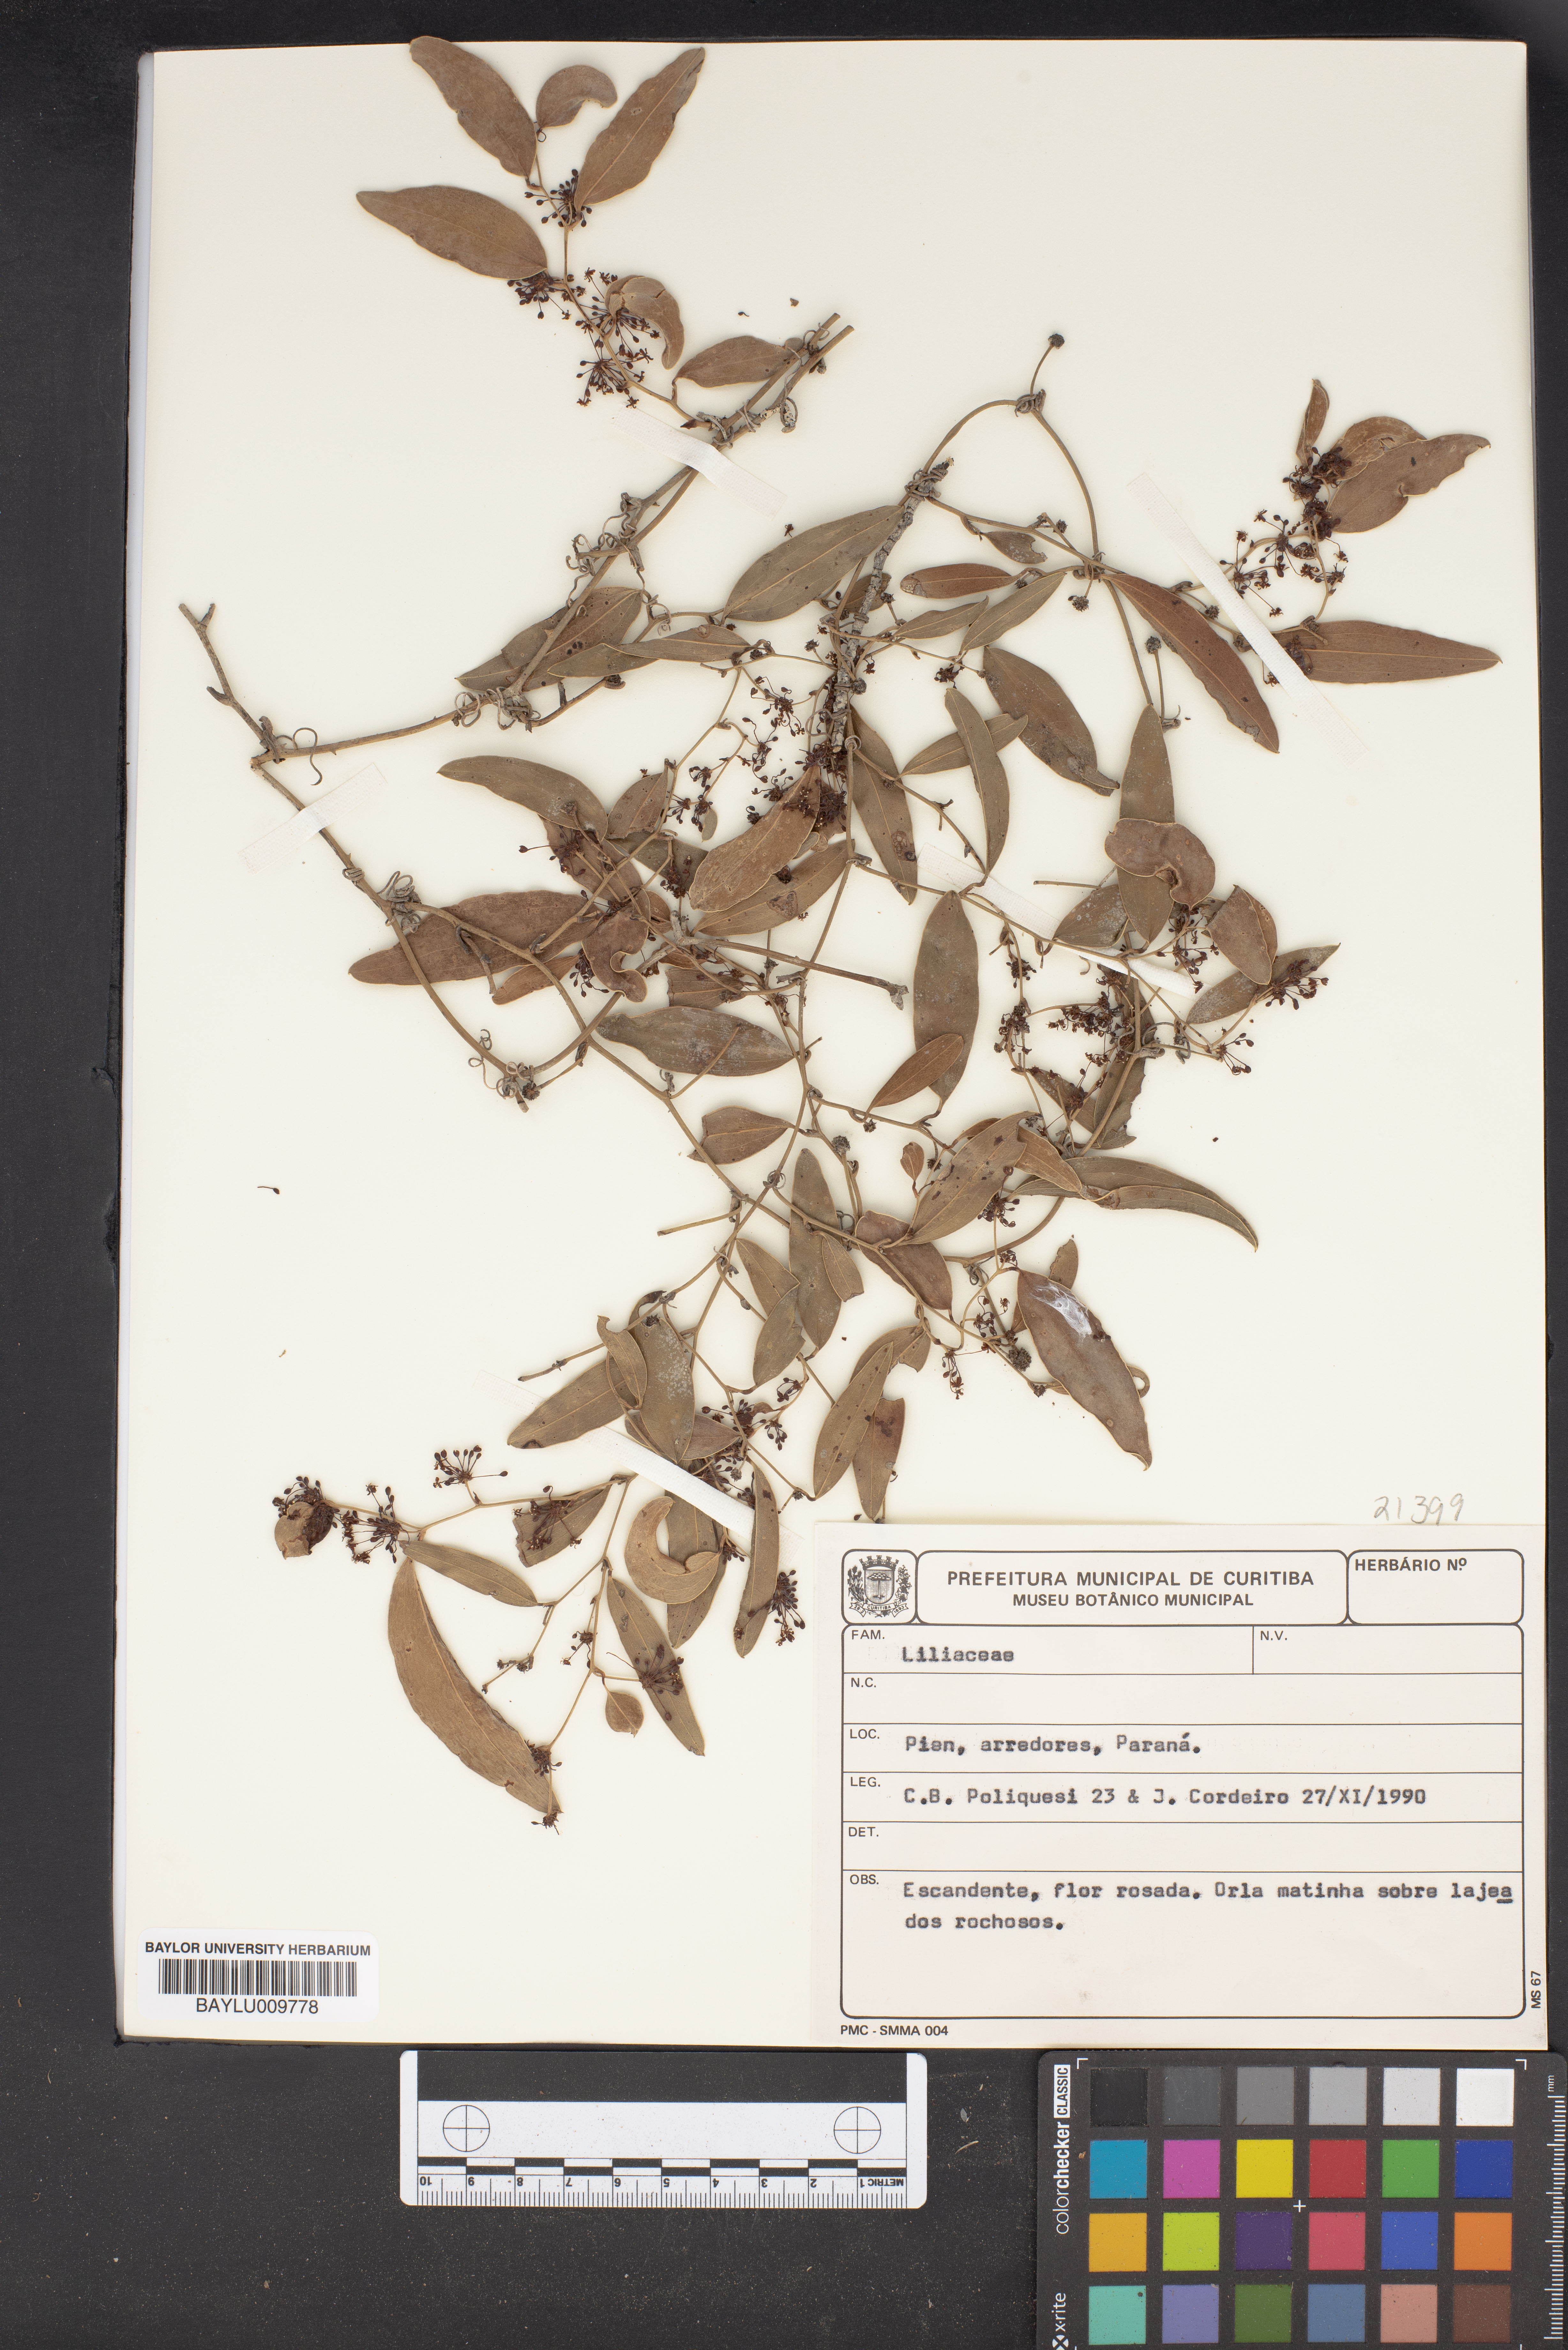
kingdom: Plantae
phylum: Tracheophyta
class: Liliopsida
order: Liliales
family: Liliaceae
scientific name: Liliaceae
